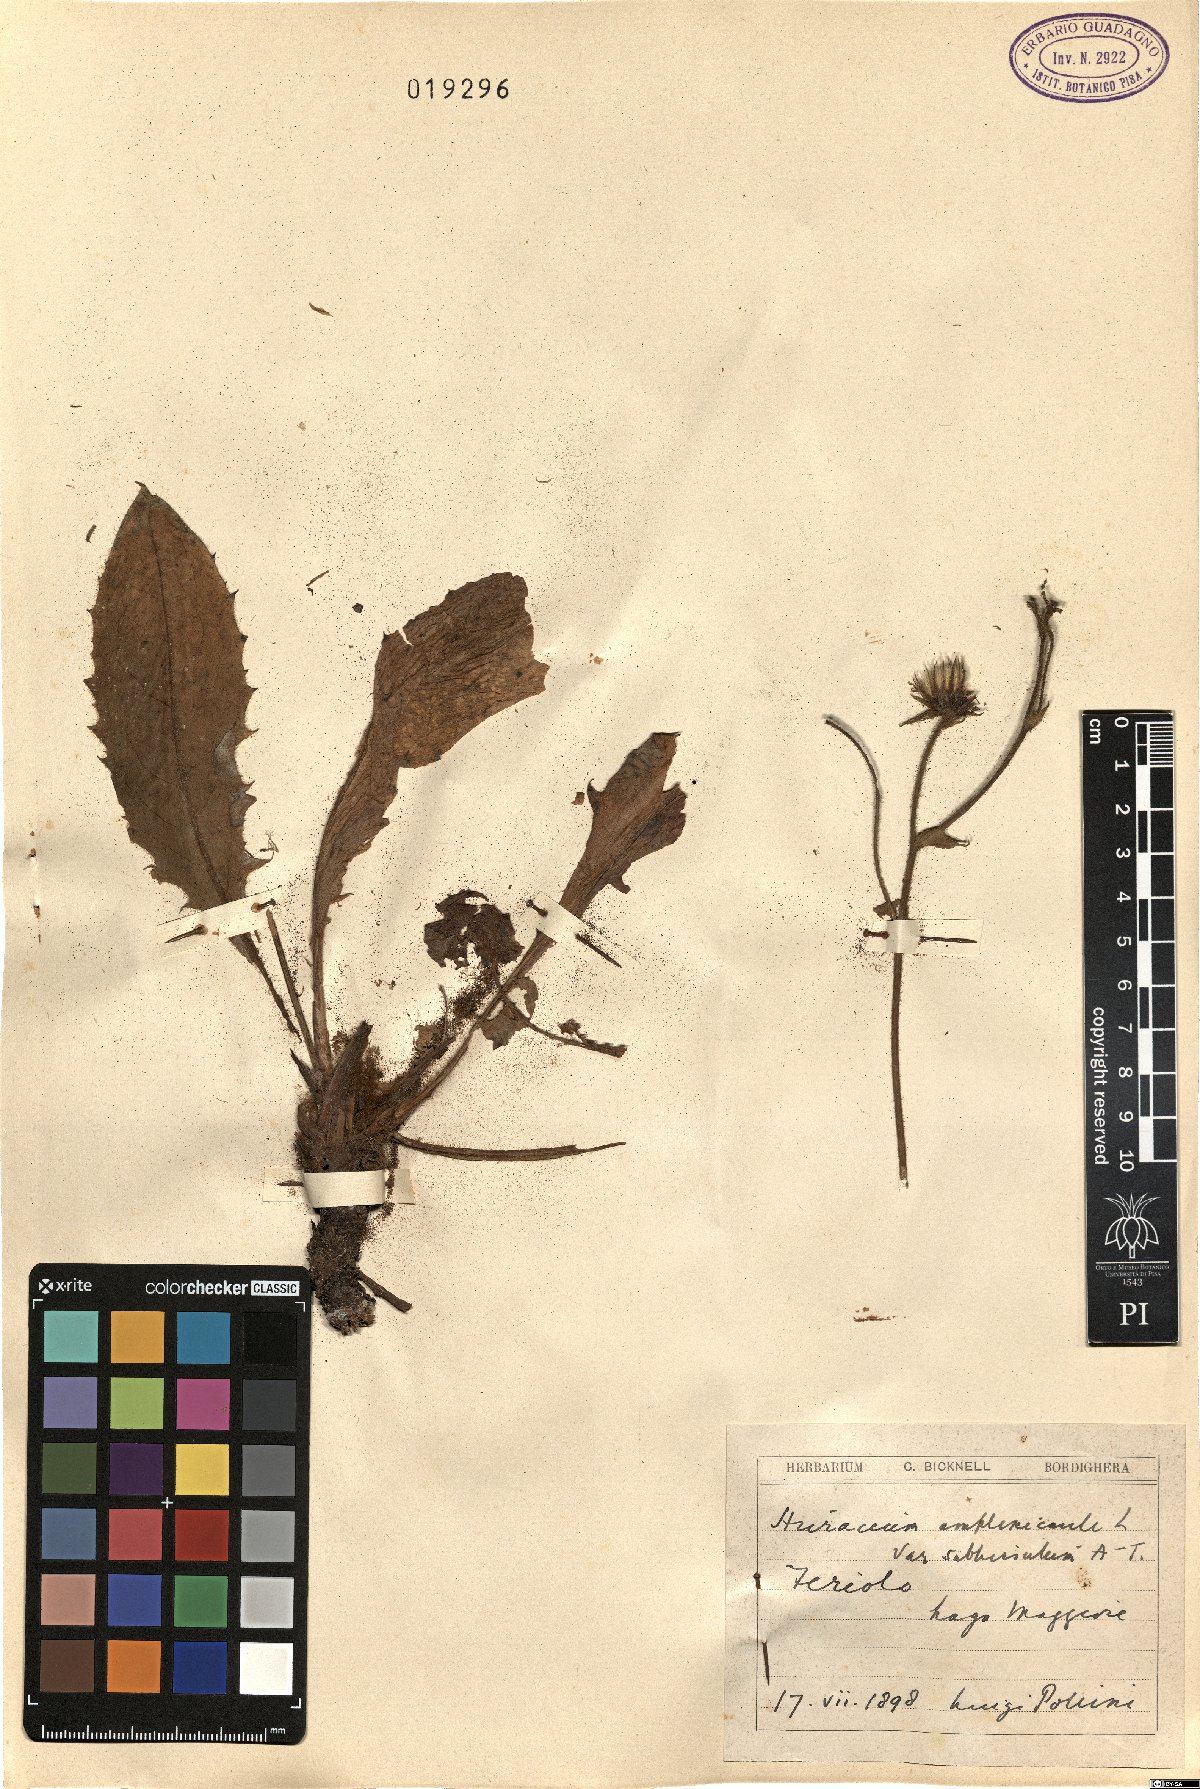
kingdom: Plantae
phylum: Tracheophyta
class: Magnoliopsida
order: Asterales
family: Asteraceae
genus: Hieracium
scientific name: Hieracium amplexicaule
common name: Sticky hawkweed
